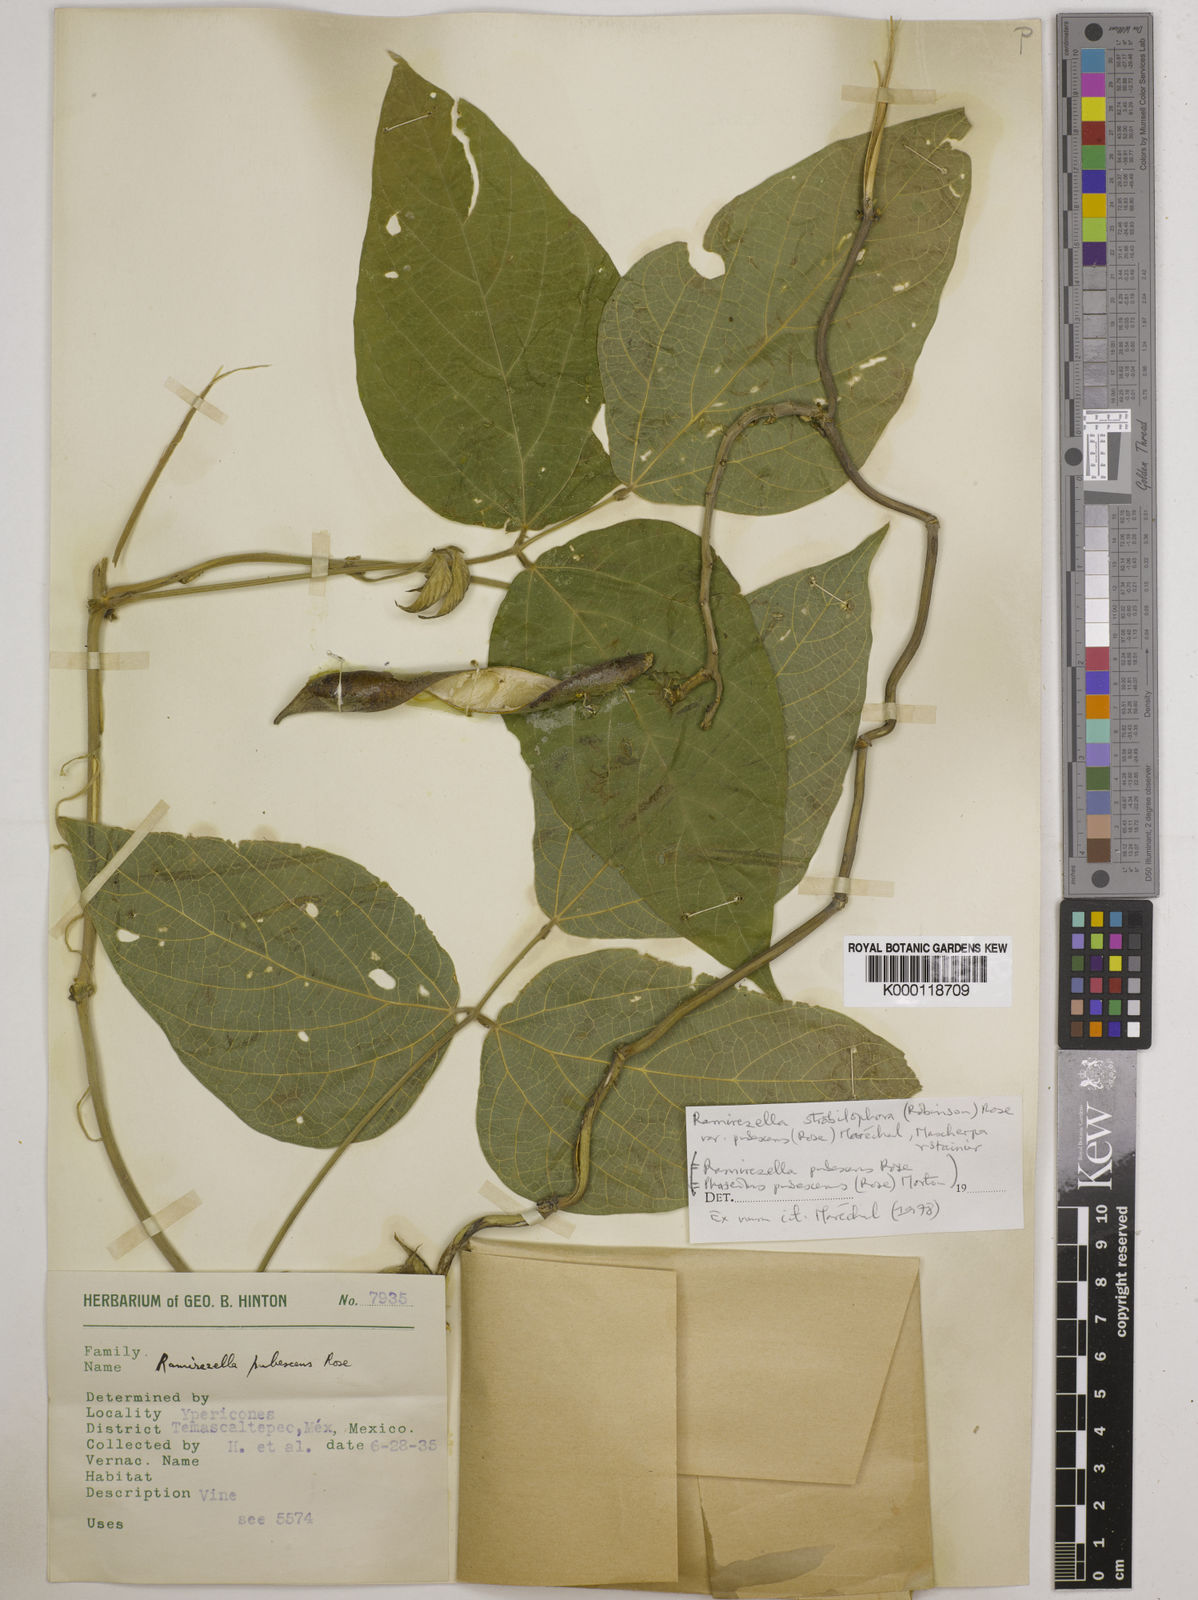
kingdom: Plantae
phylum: Tracheophyta
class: Magnoliopsida
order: Fabales
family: Fabaceae
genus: Ramirezella
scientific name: Ramirezella strobilophora
